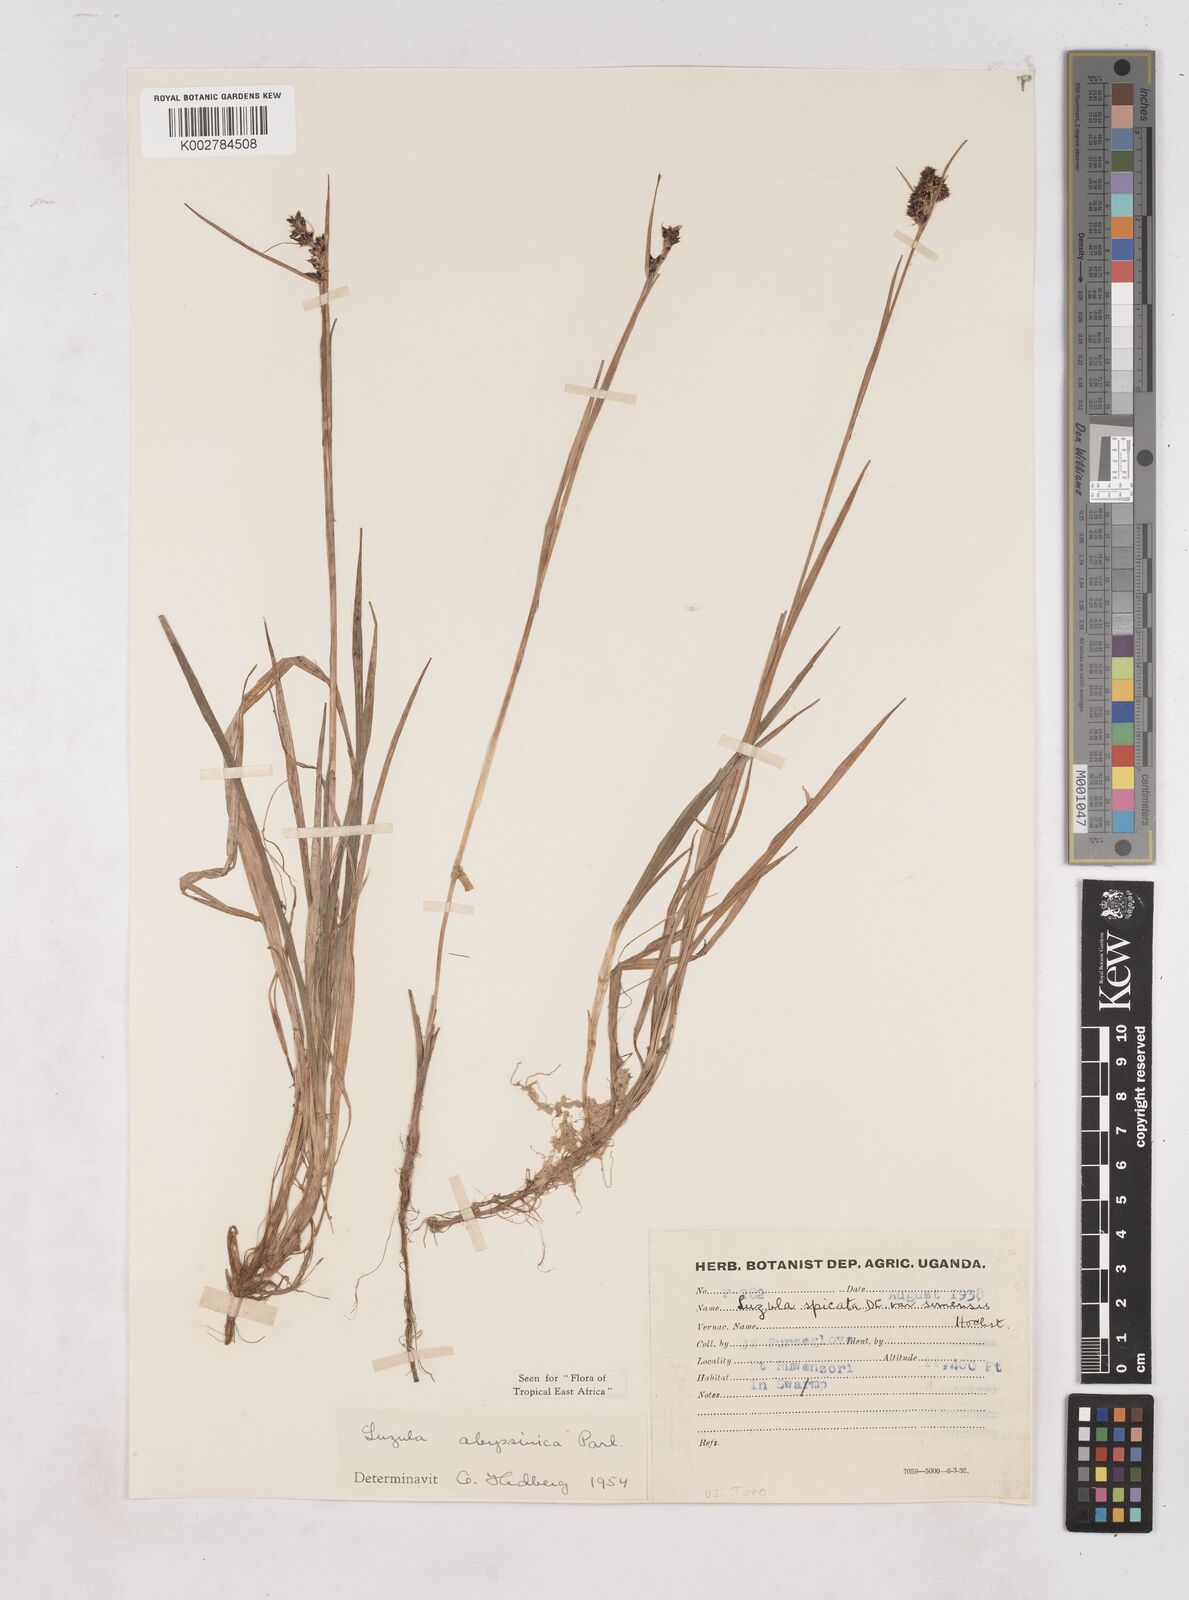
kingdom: Plantae
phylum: Tracheophyta
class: Liliopsida
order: Poales
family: Juncaceae
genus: Luzula
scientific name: Luzula abyssinica
